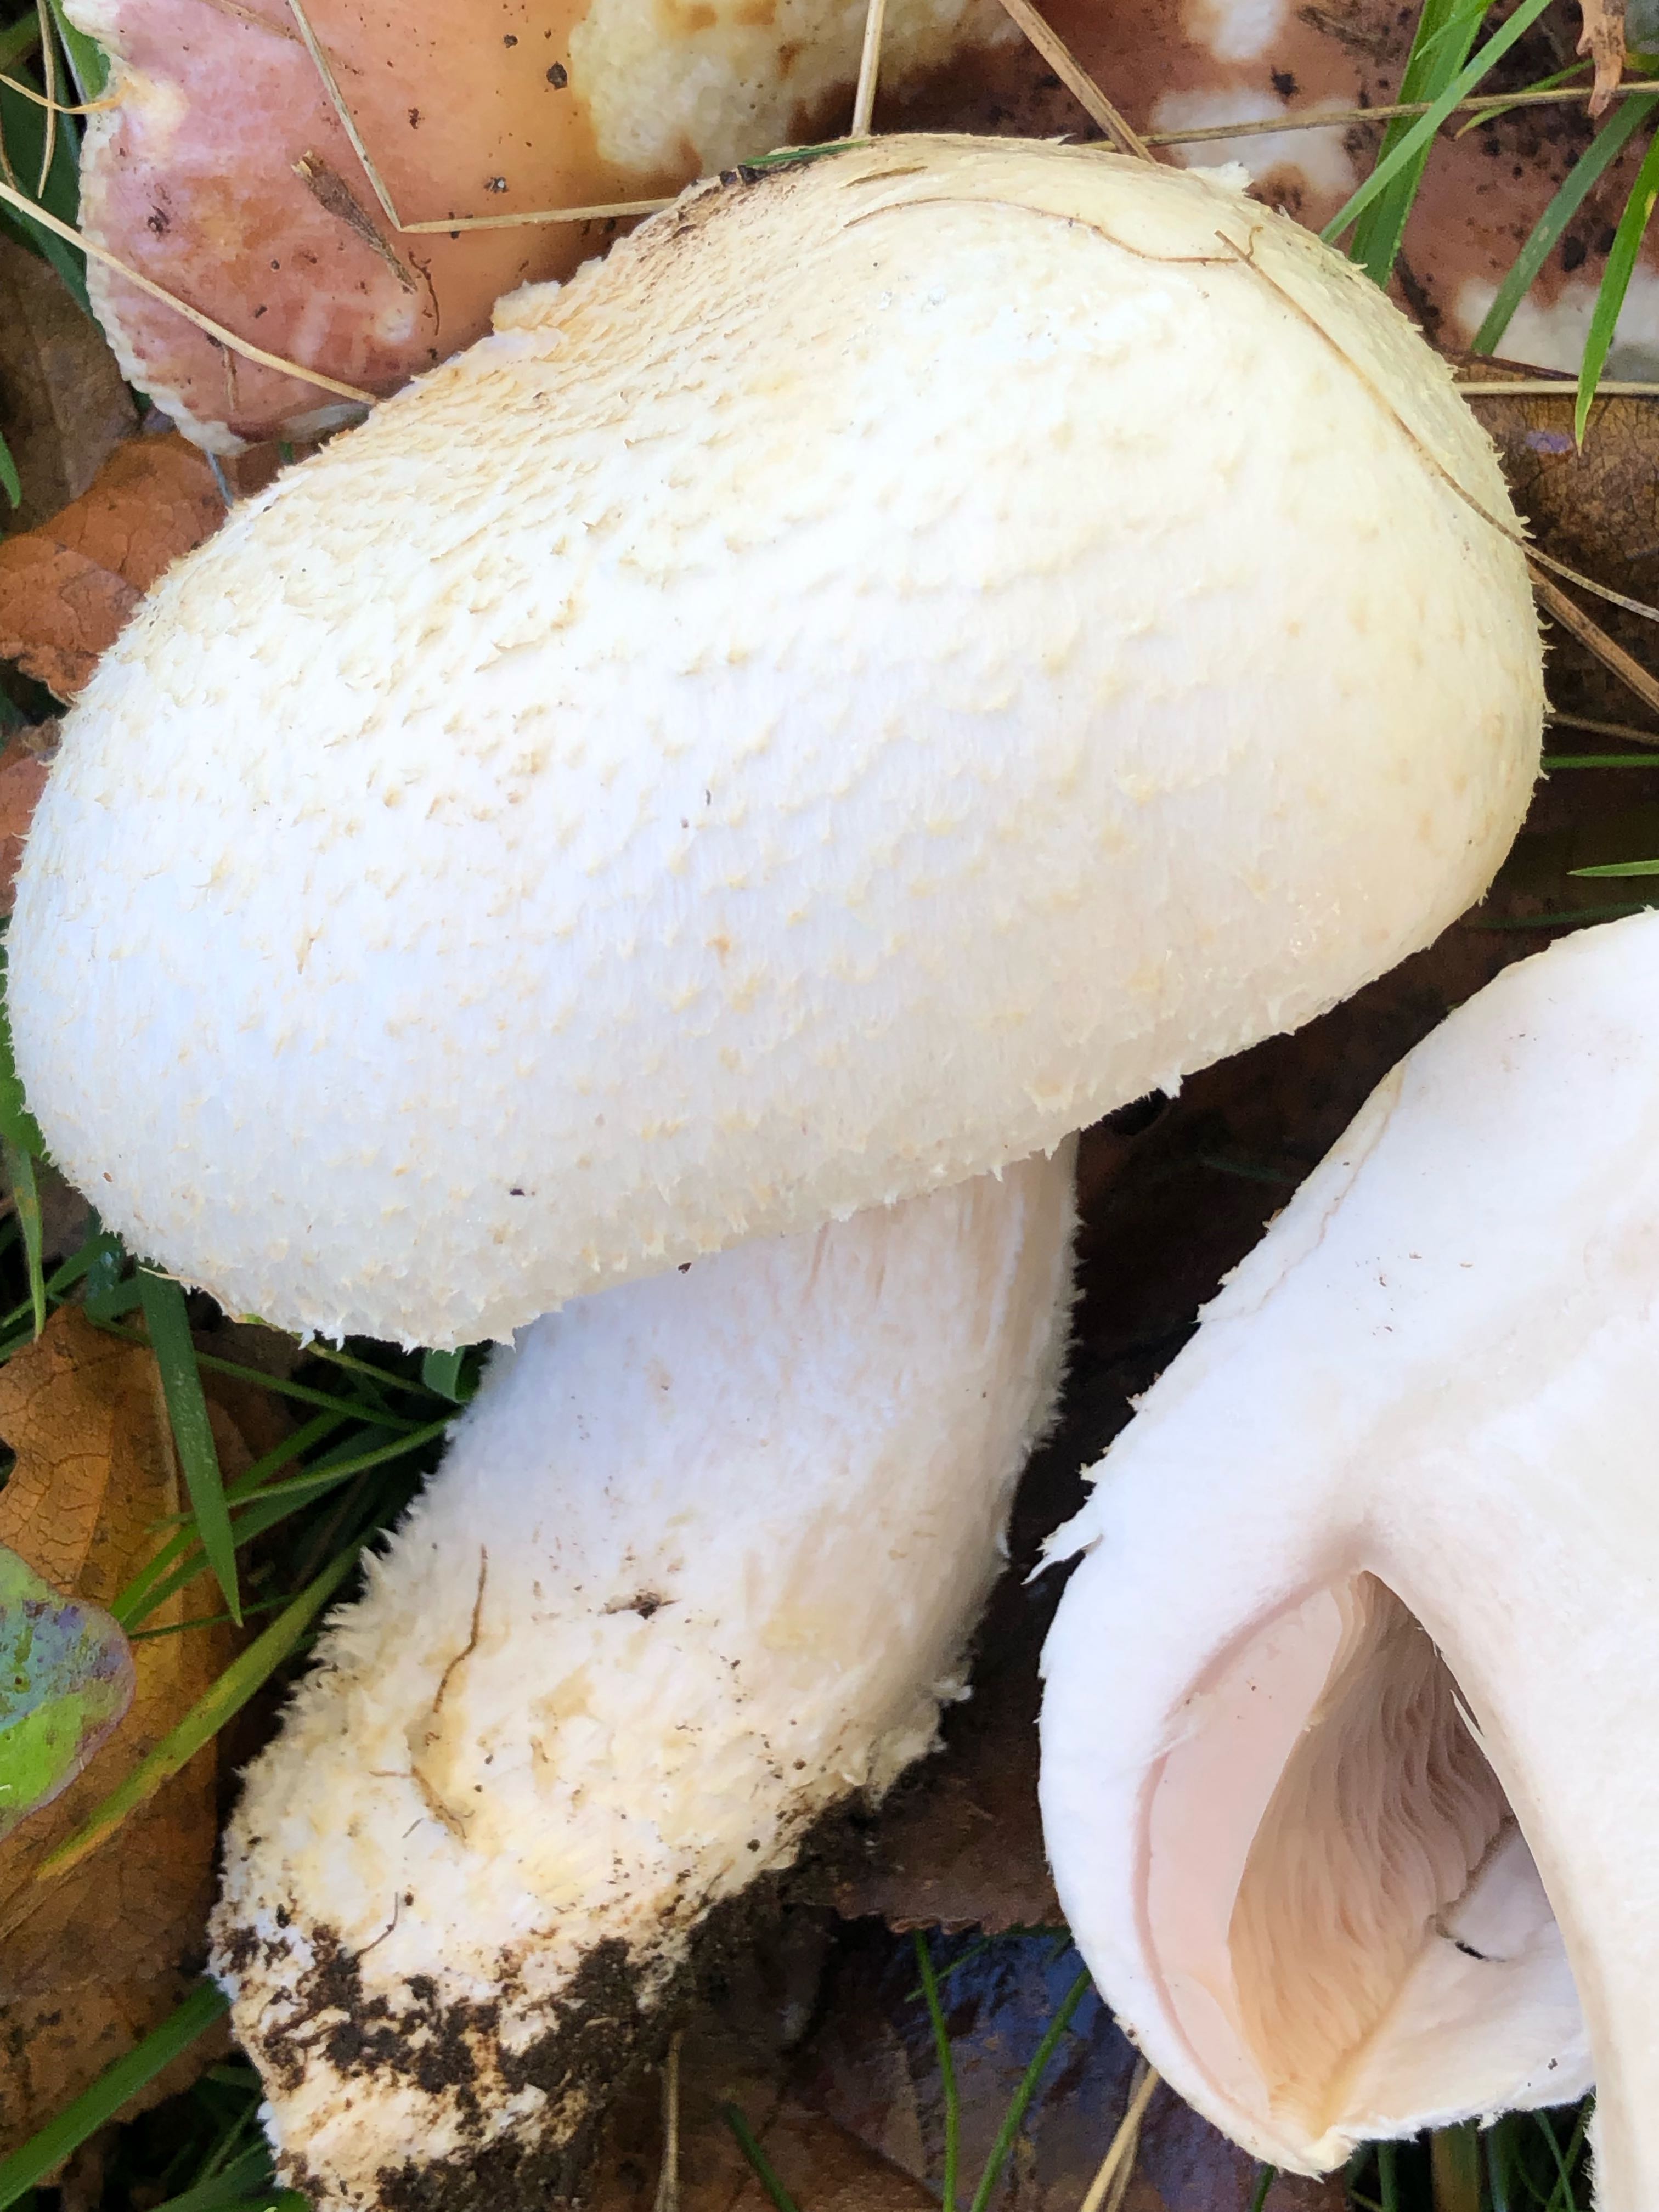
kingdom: Fungi
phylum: Basidiomycota
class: Agaricomycetes
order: Agaricales
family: Agaricaceae
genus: Agaricus
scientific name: Agaricus arvensis
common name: ager-champignon
